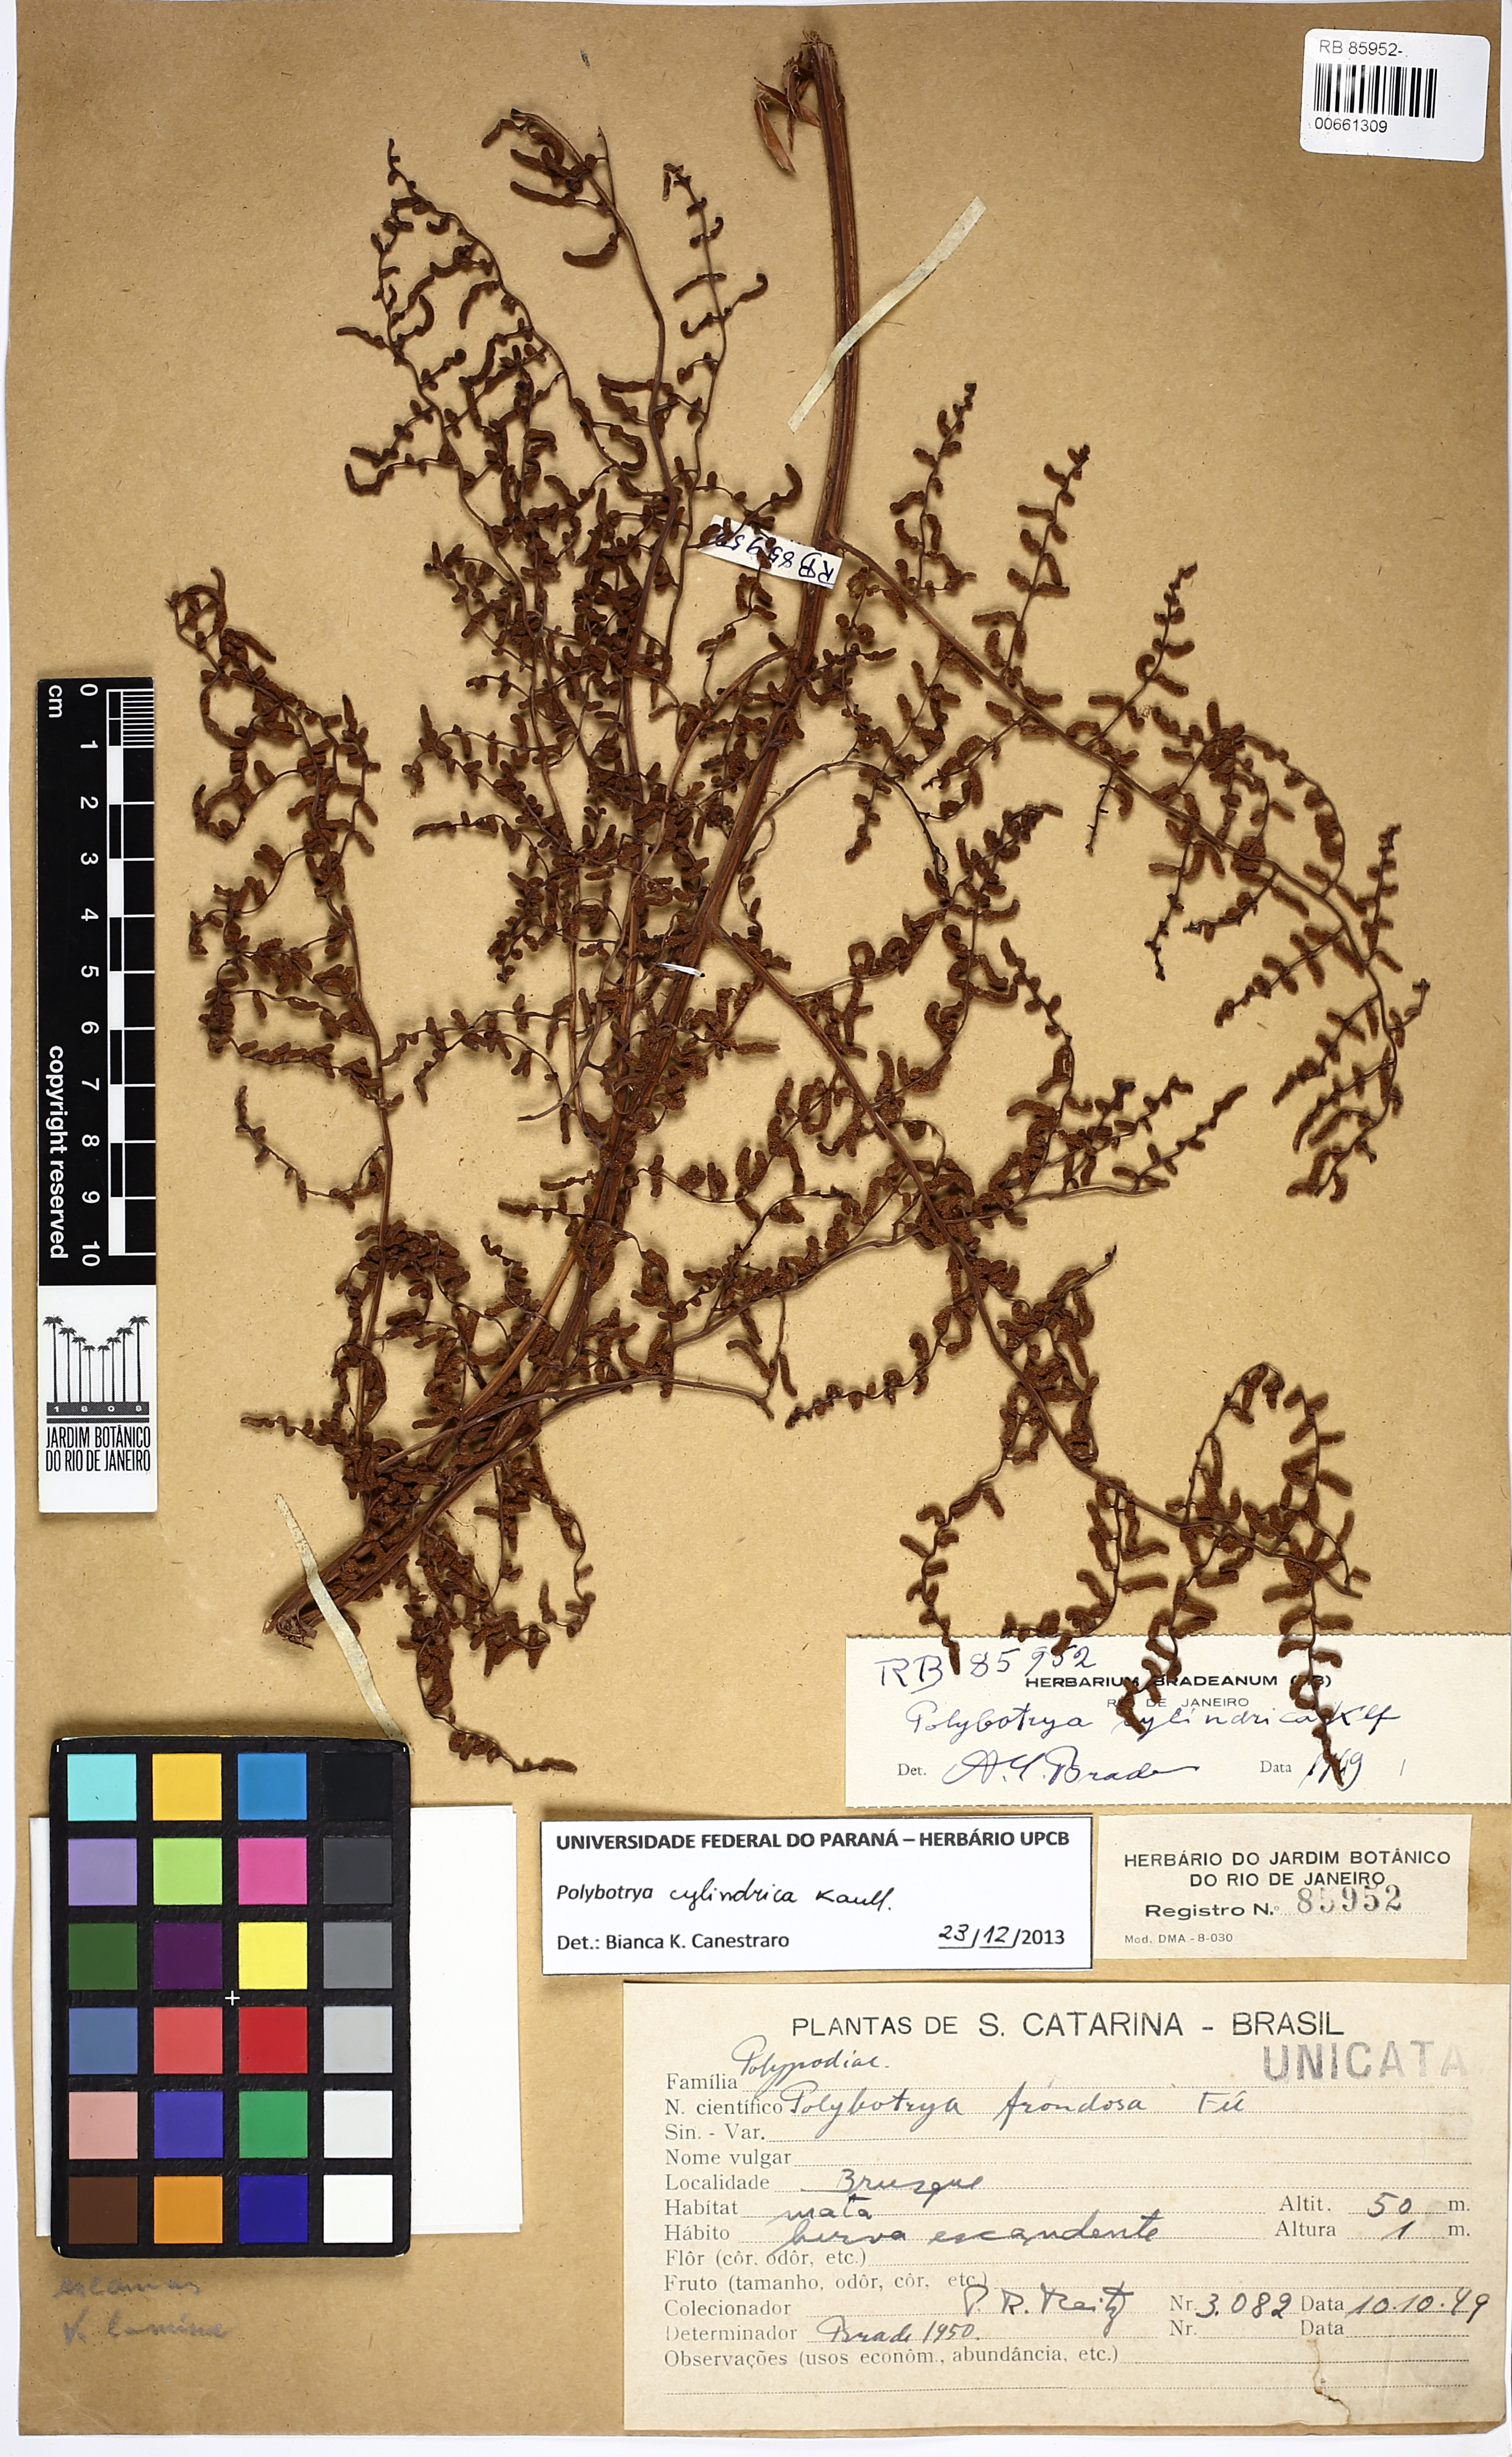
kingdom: Plantae
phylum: Tracheophyta
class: Polypodiopsida
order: Polypodiales
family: Dryopteridaceae
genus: Polybotrya
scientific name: Polybotrya cylindrica
